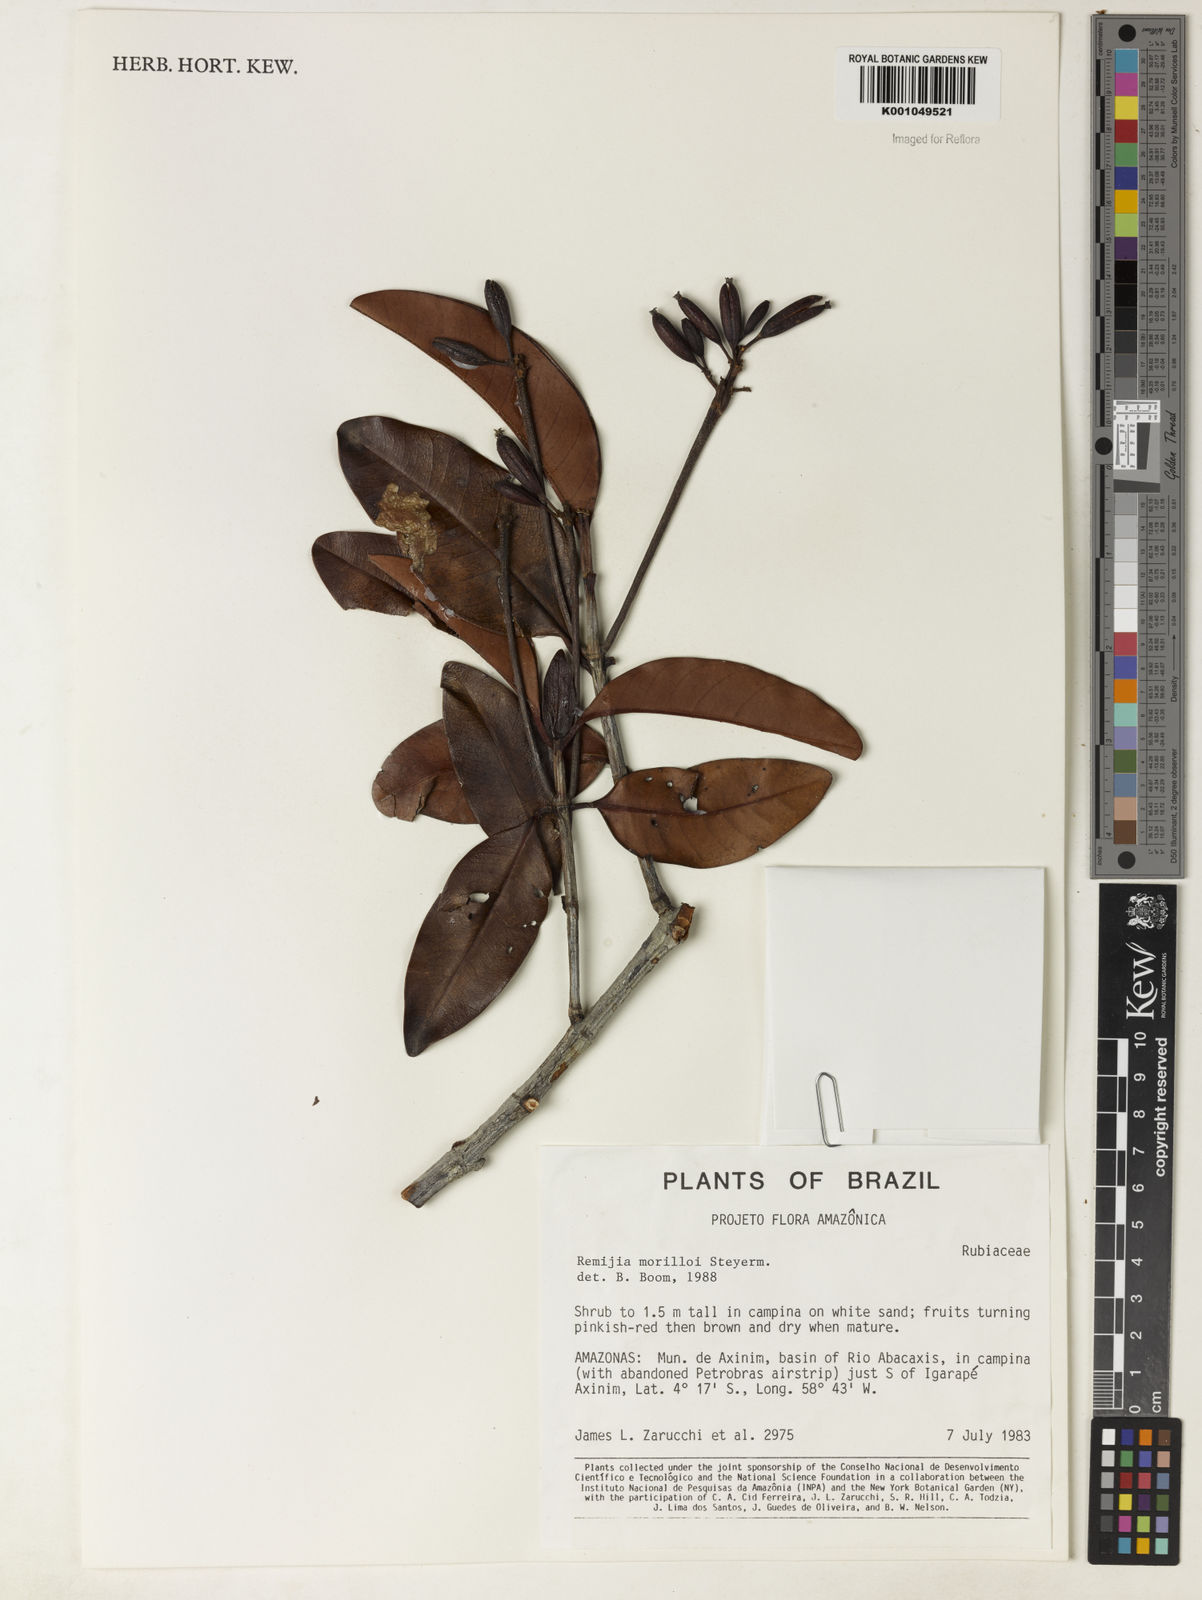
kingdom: Plantae
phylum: Tracheophyta
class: Magnoliopsida
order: Gentianales
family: Rubiaceae
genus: Remijia
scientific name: Remijia morilloi
